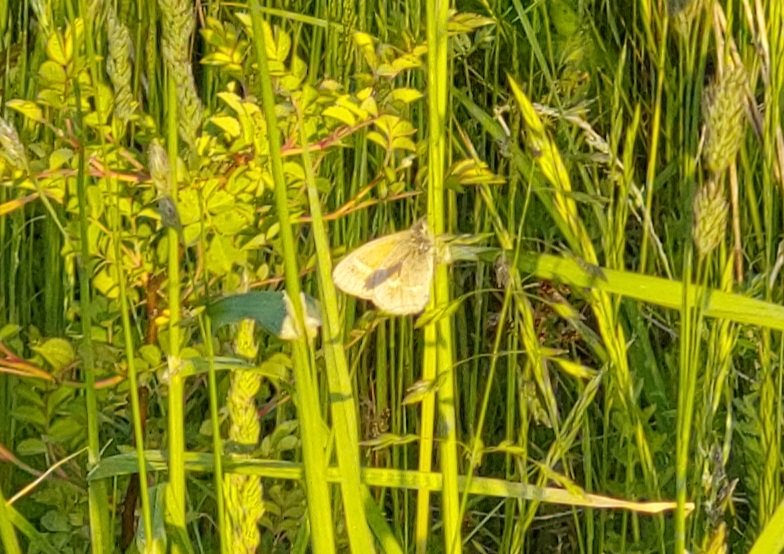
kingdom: Animalia
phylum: Arthropoda
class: Insecta
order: Lepidoptera
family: Nymphalidae
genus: Coenonympha
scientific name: Coenonympha tullia
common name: Large Heath
